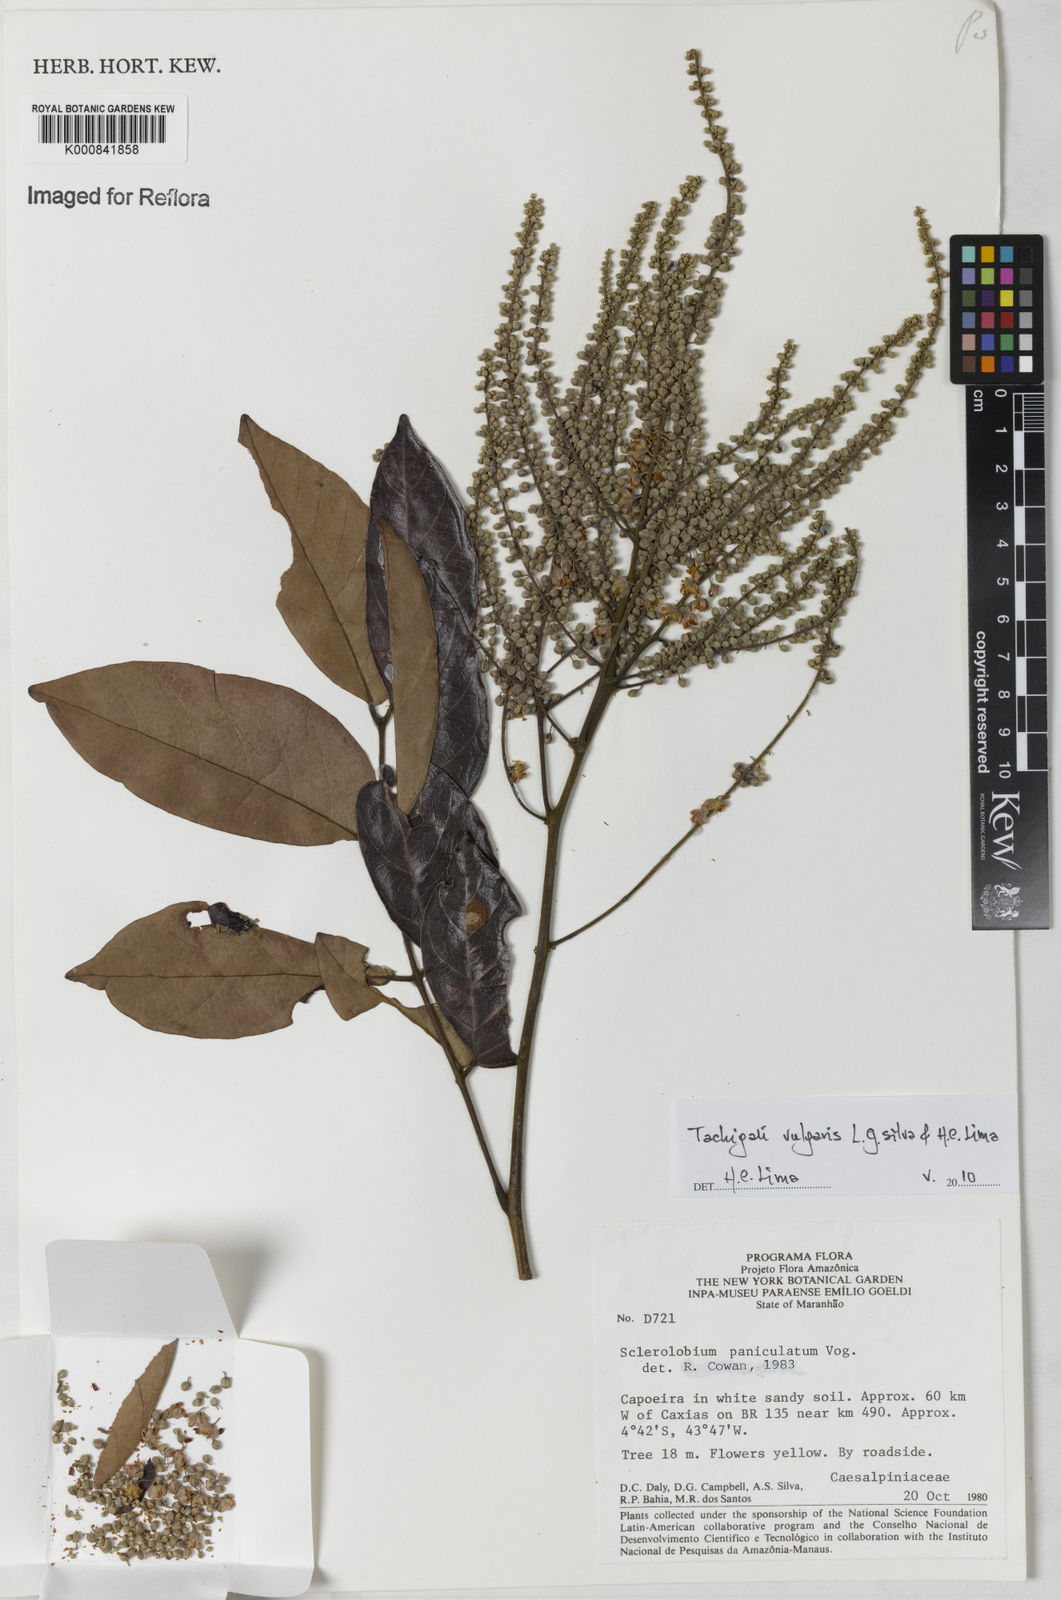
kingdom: Plantae
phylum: Tracheophyta
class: Magnoliopsida
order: Fabales
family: Fabaceae
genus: Tachigali
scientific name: Tachigali vulgaris
